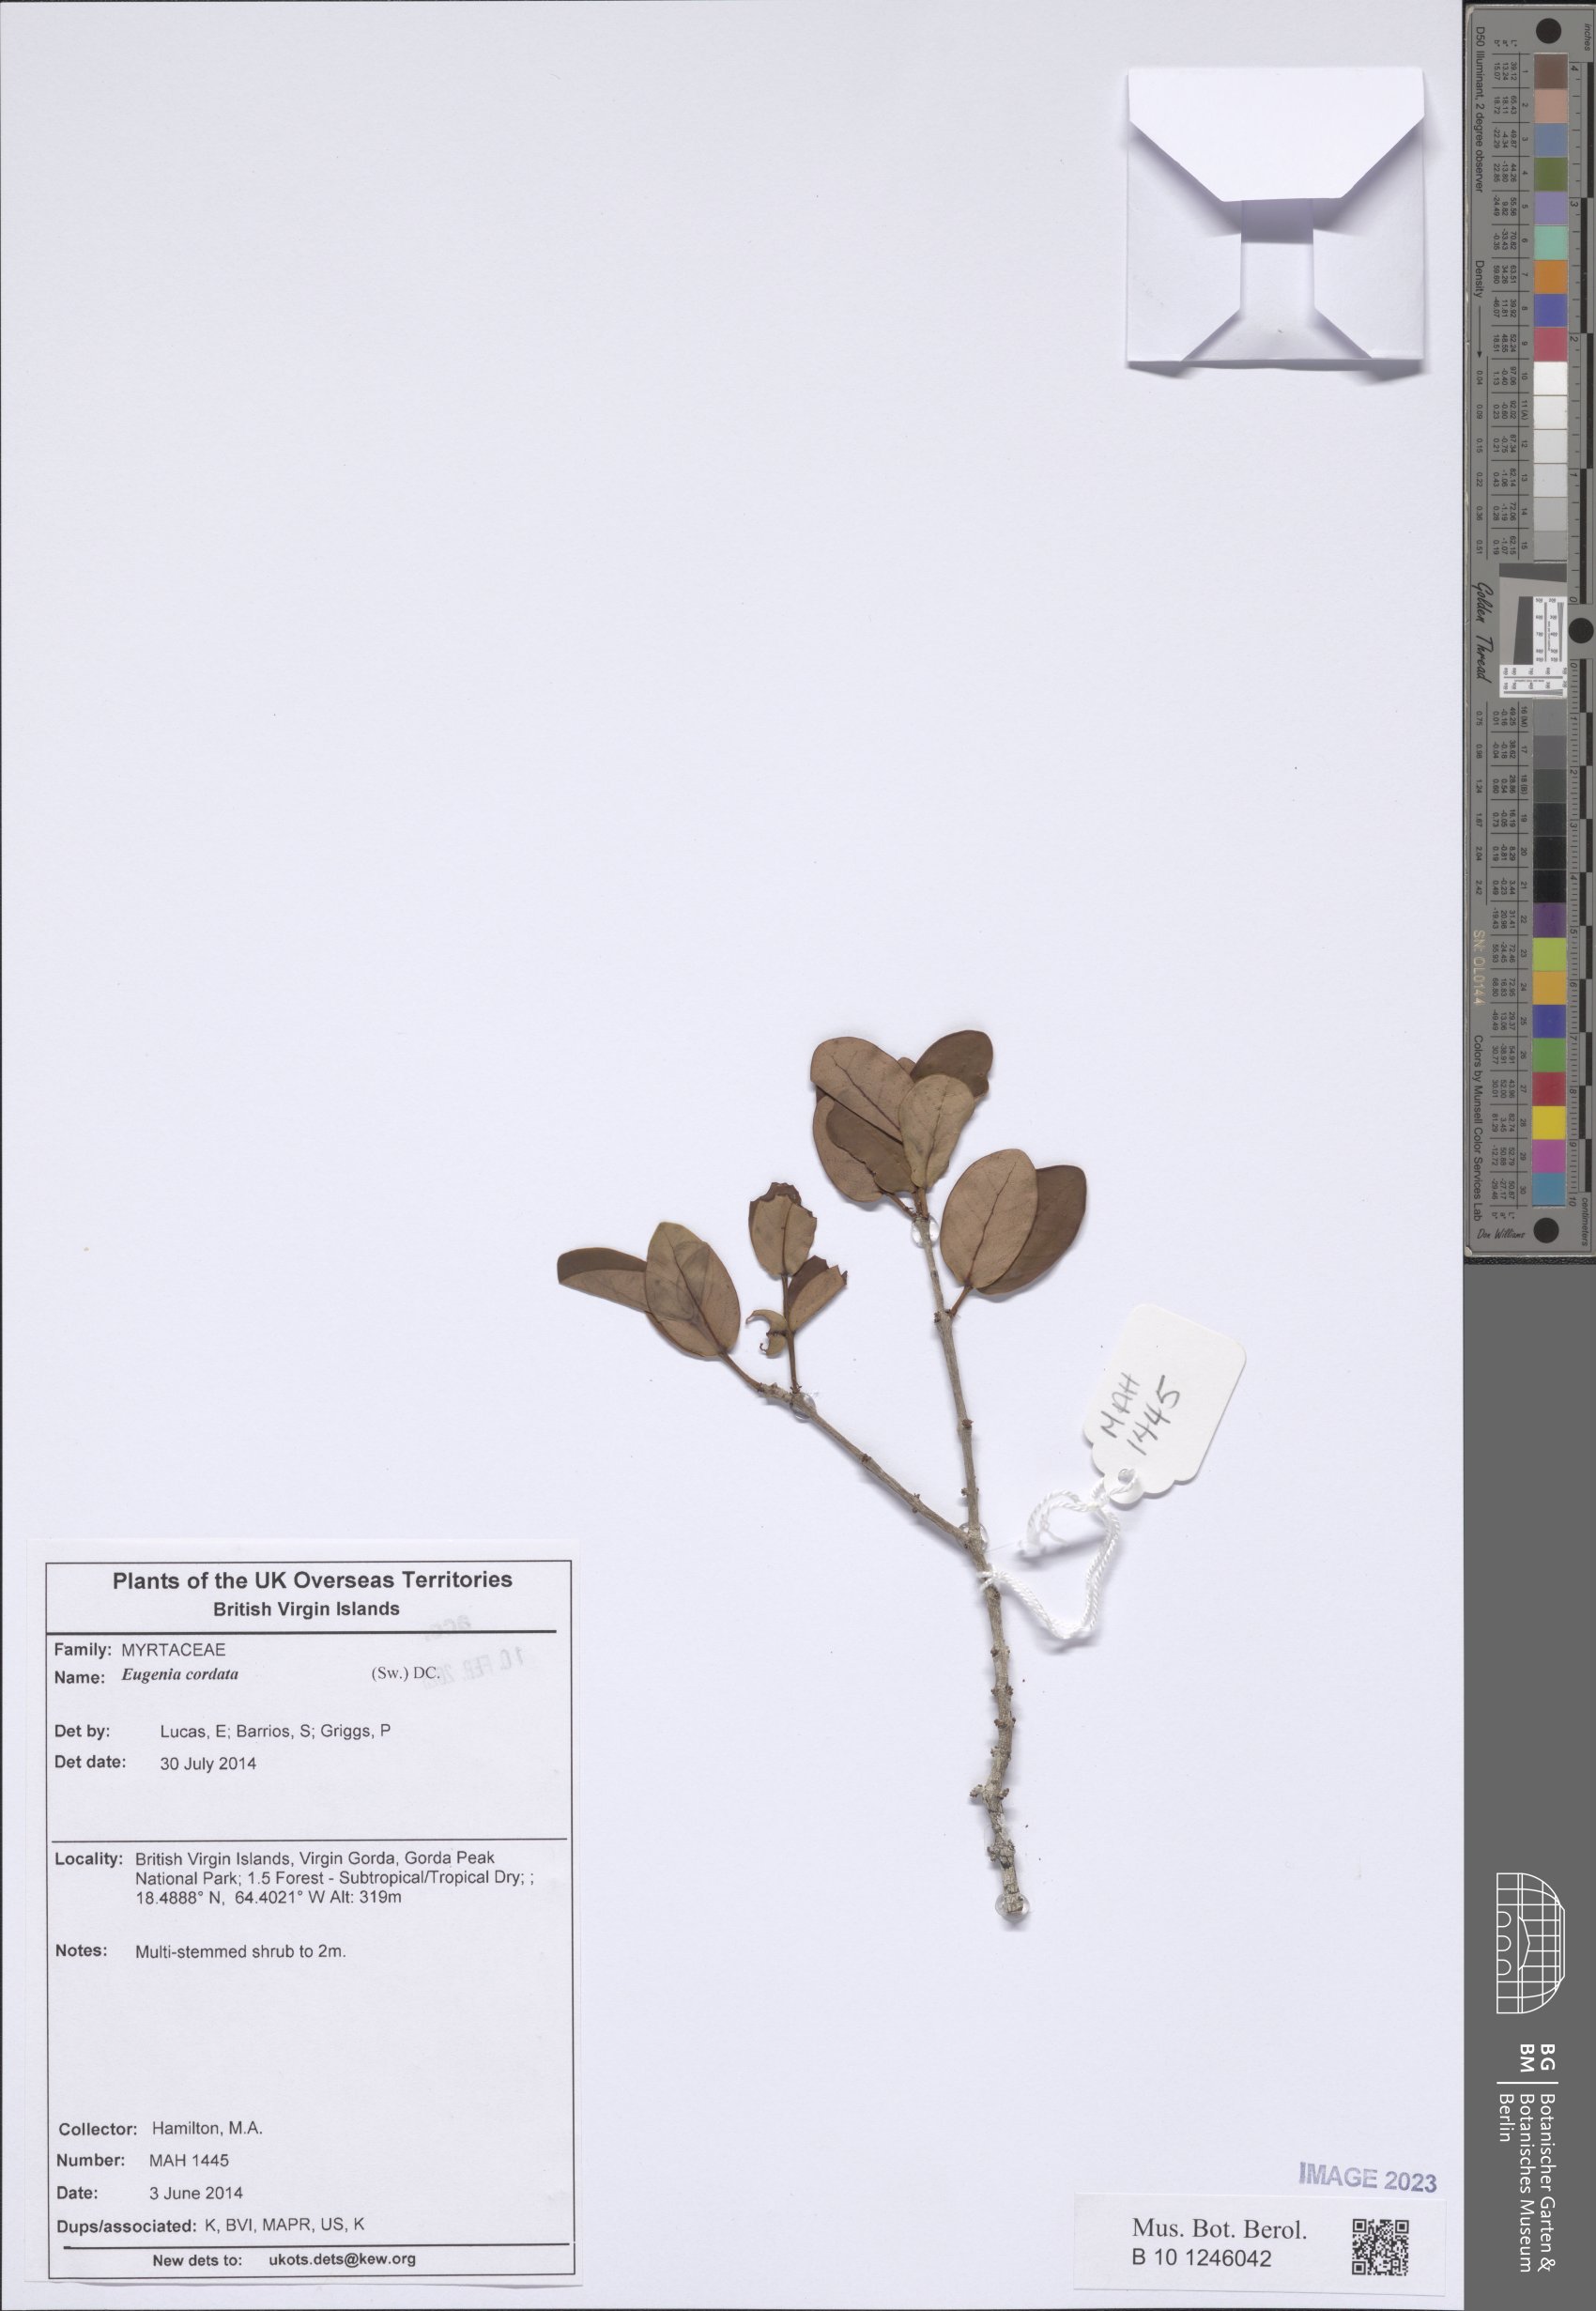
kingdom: Plantae
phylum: Tracheophyta
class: Magnoliopsida
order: Myrtales
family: Myrtaceae
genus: Eugenia
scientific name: Eugenia cordata
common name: Lathberry
